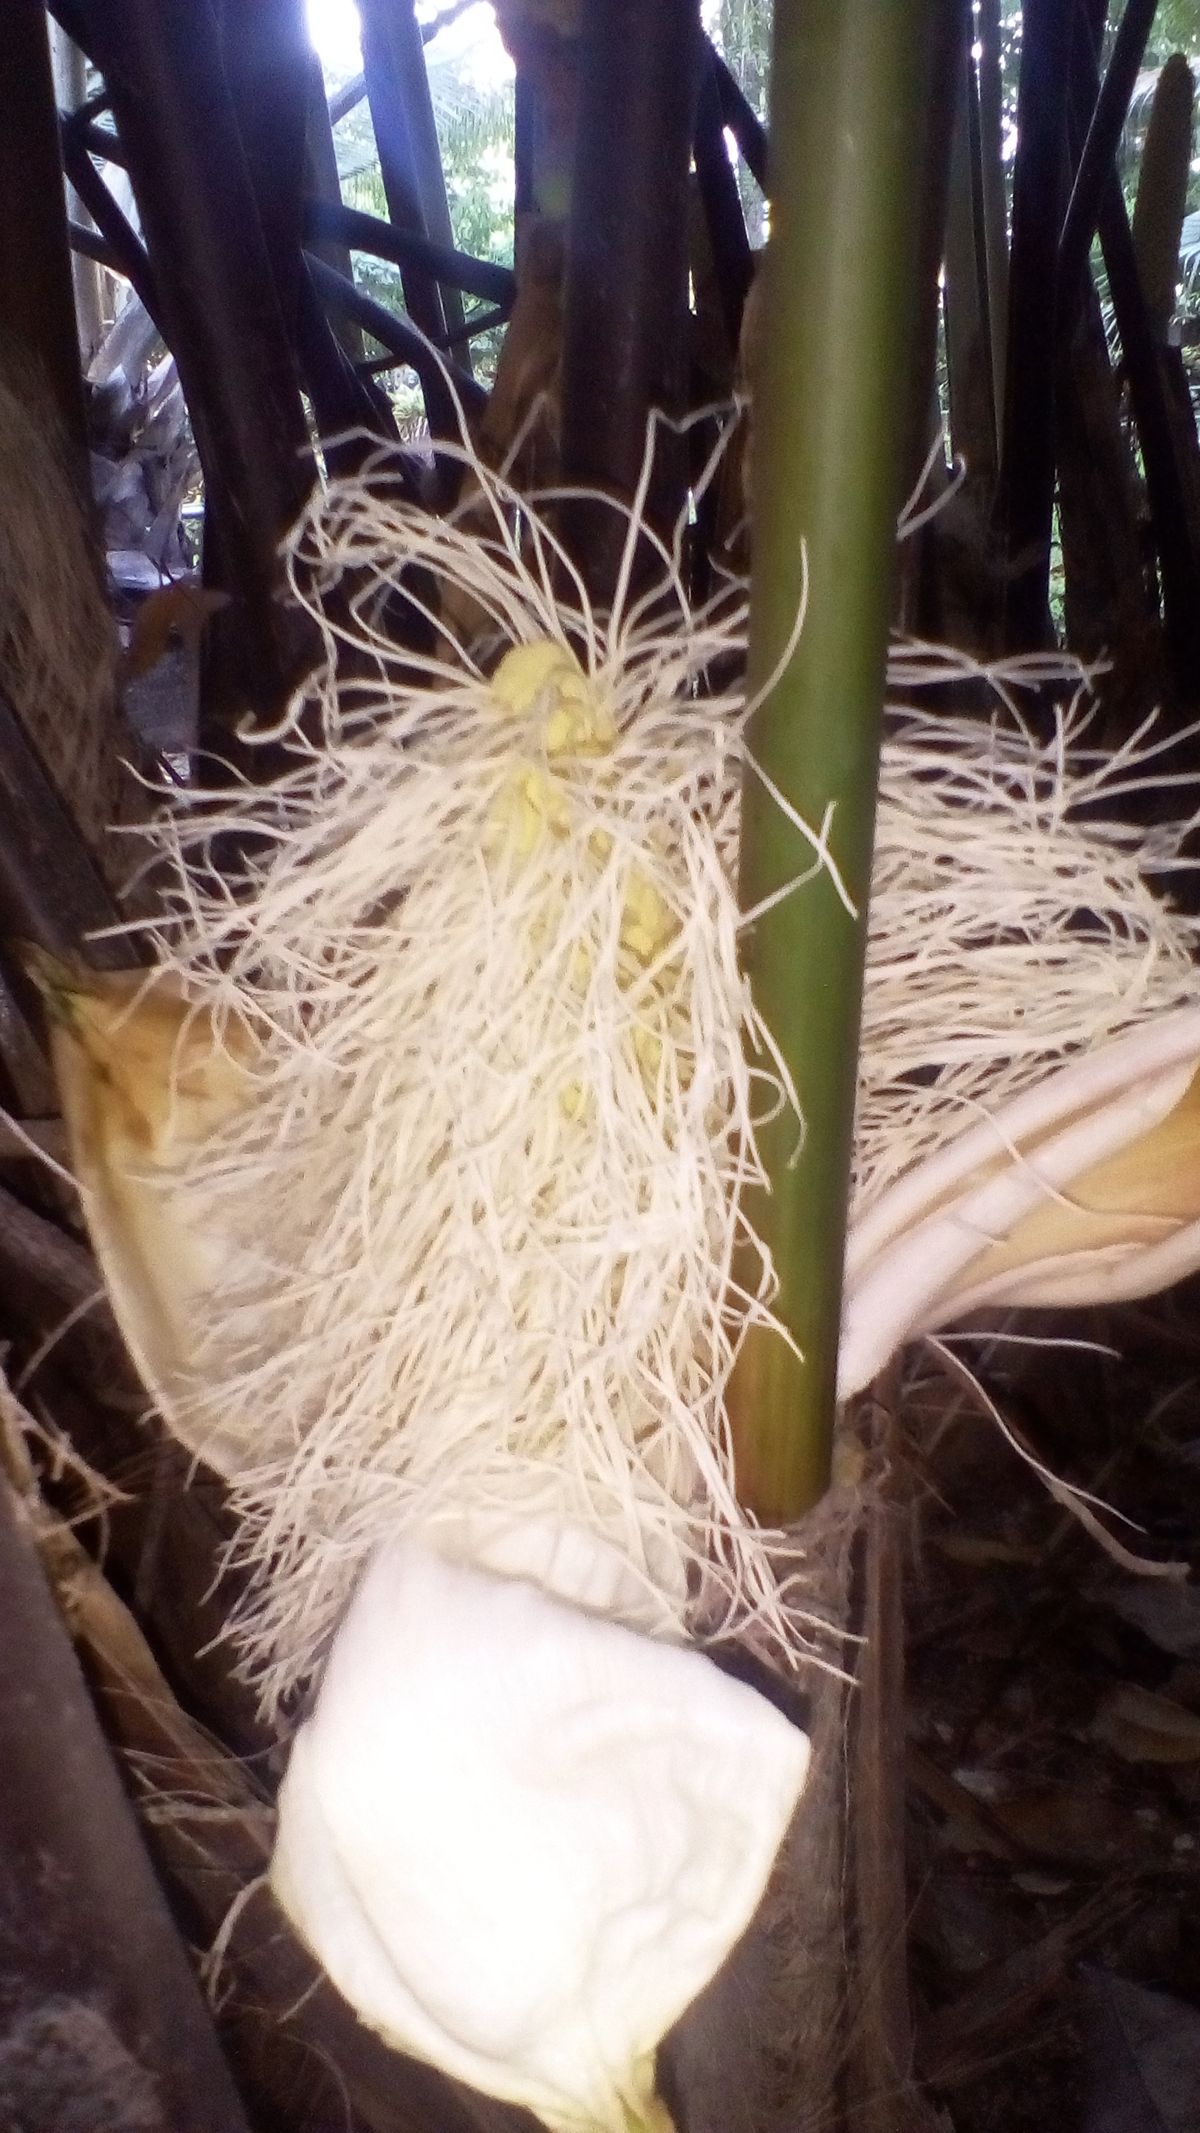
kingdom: Plantae
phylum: Tracheophyta
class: Liliopsida
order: Pandanales
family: Cyclanthaceae
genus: Carludovica
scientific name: Carludovica palmata
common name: Panama hat plant
